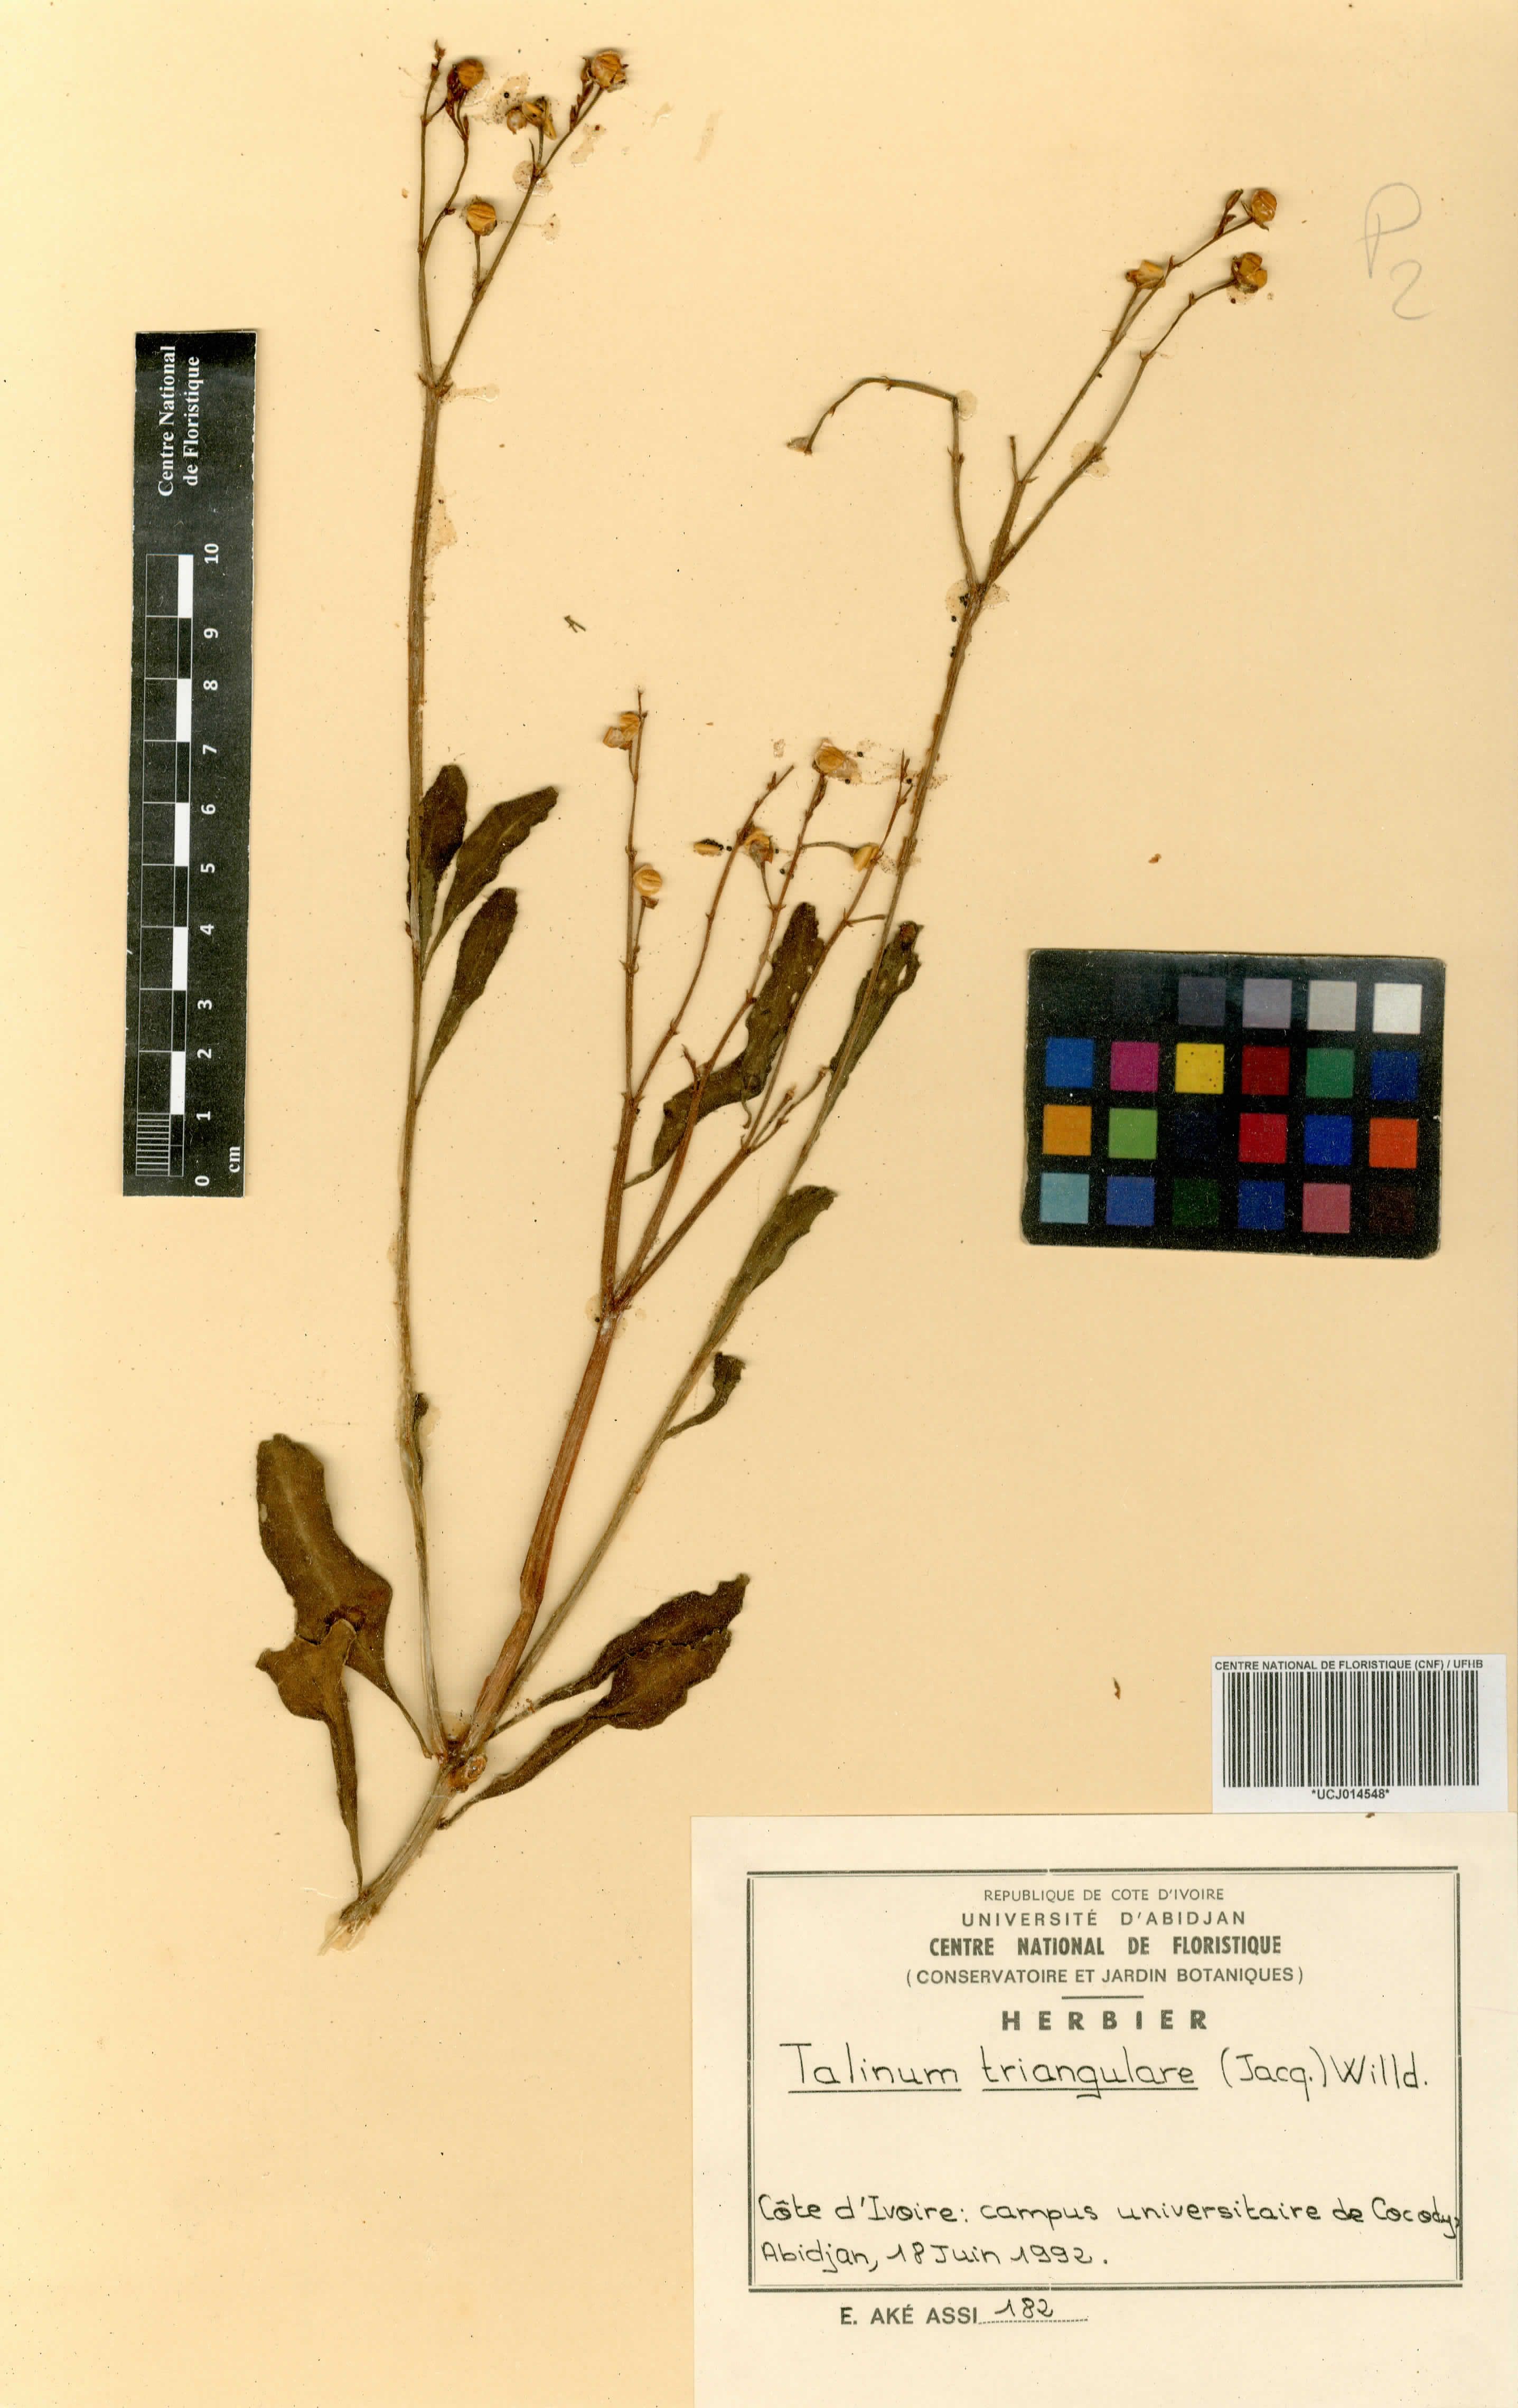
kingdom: Plantae
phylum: Tracheophyta
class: Magnoliopsida
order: Caryophyllales
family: Talinaceae
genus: Talinum
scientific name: Talinum fruticosum
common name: Verdolaga-francesa
